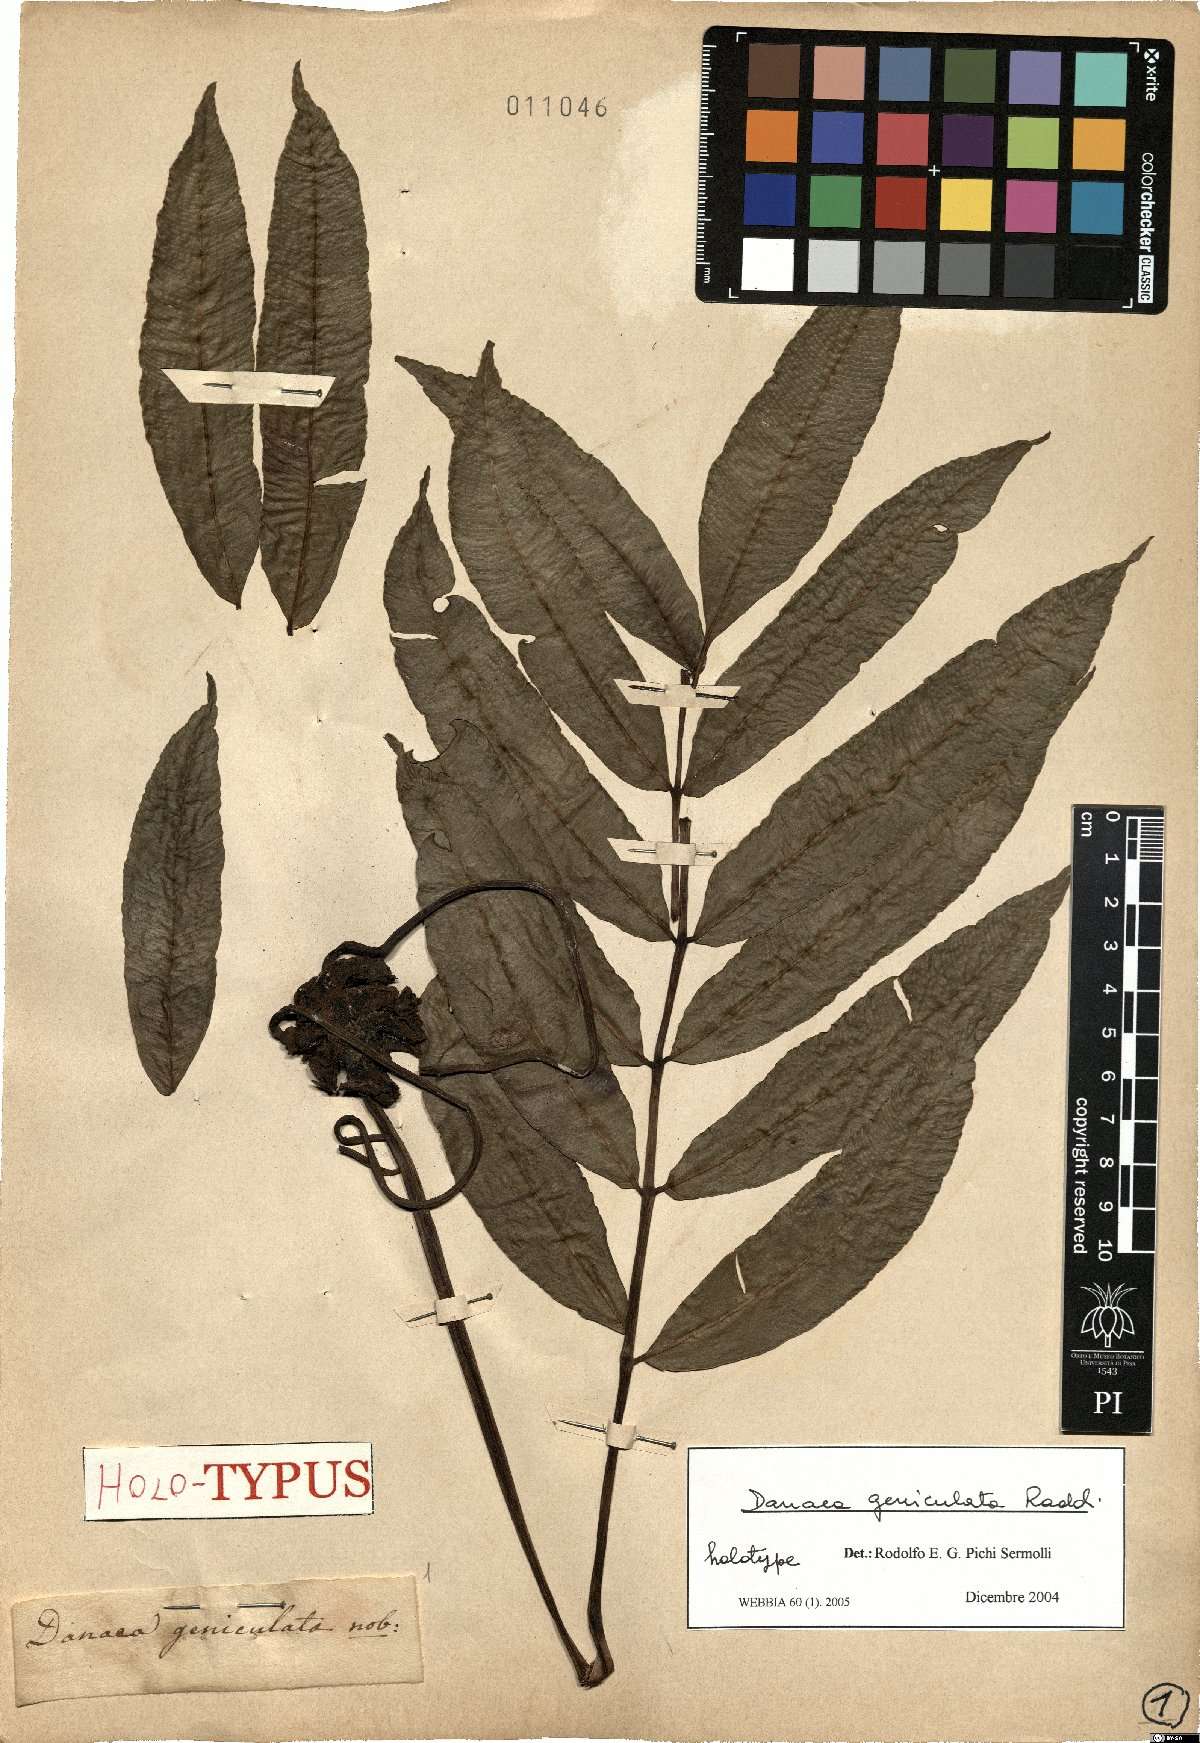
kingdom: Plantae
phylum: Tracheophyta
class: Polypodiopsida
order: Marattiales
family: Marattiaceae
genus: Danaea
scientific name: Danaea geniculata
